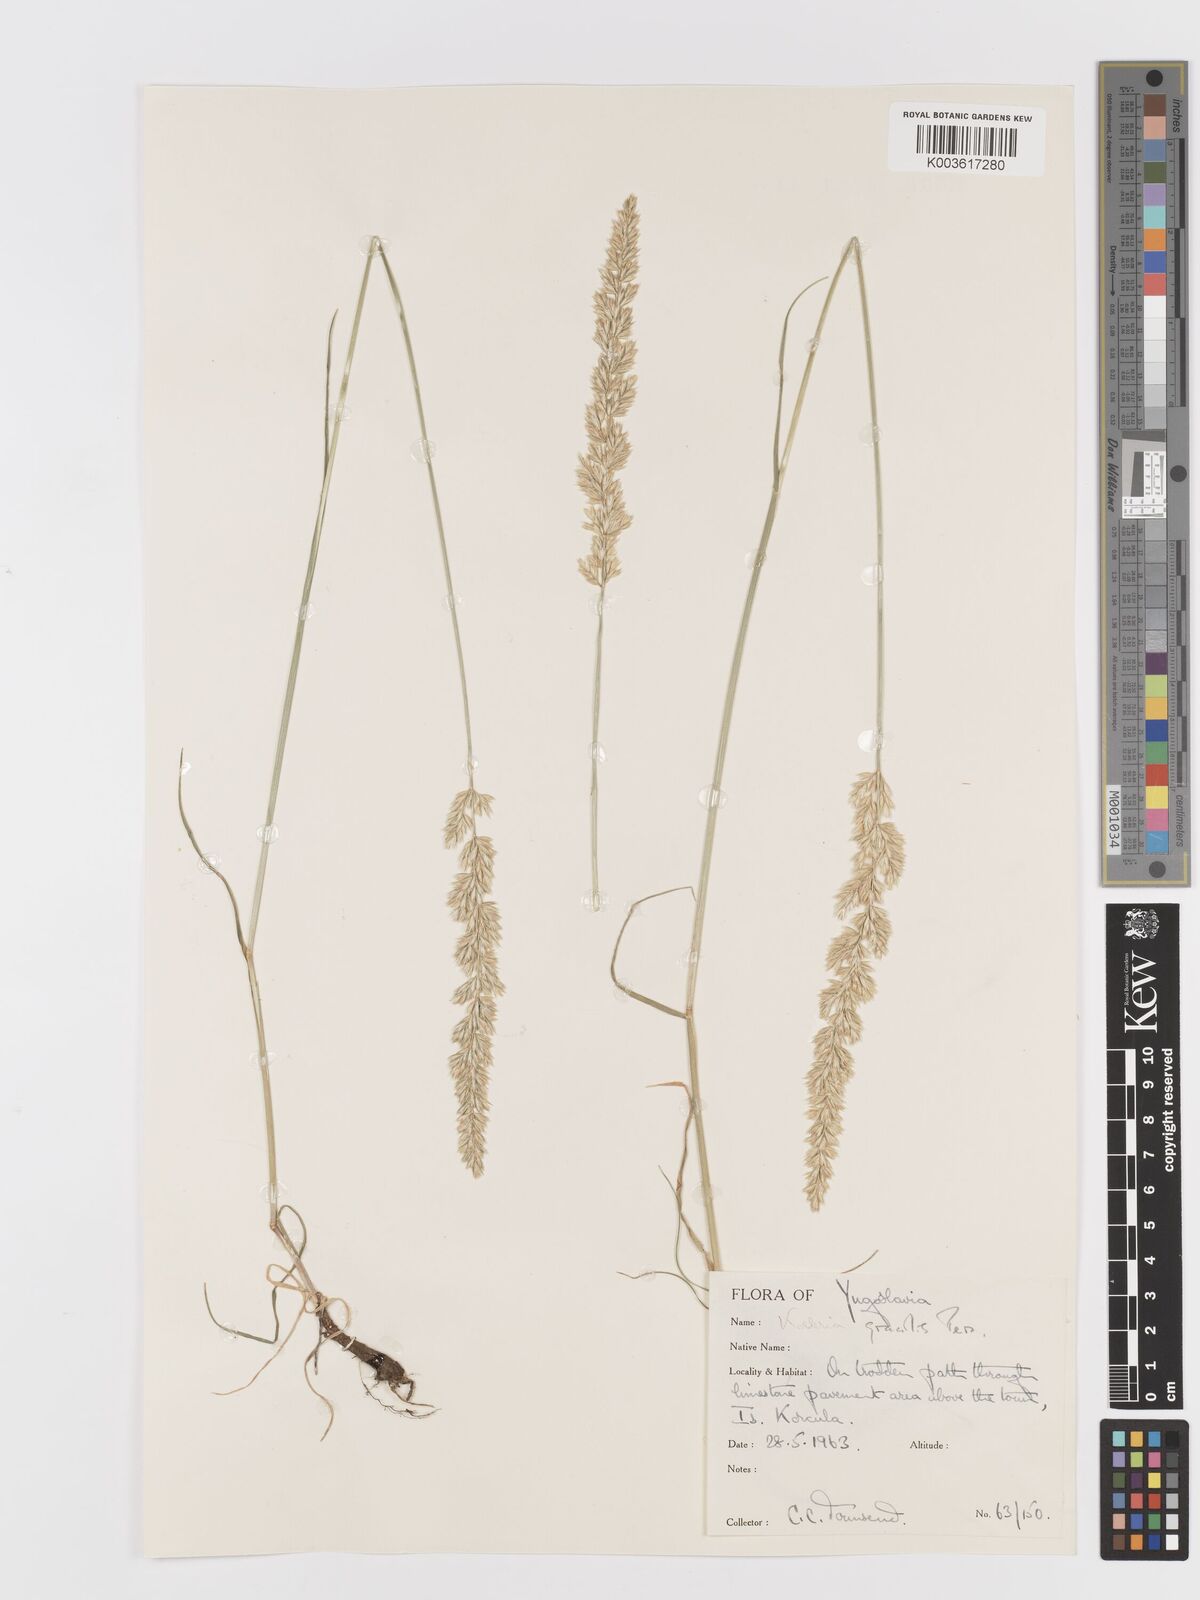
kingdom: Plantae
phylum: Tracheophyta
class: Liliopsida
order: Poales
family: Poaceae
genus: Koeleria
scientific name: Koeleria macrantha
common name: Crested hair-grass
